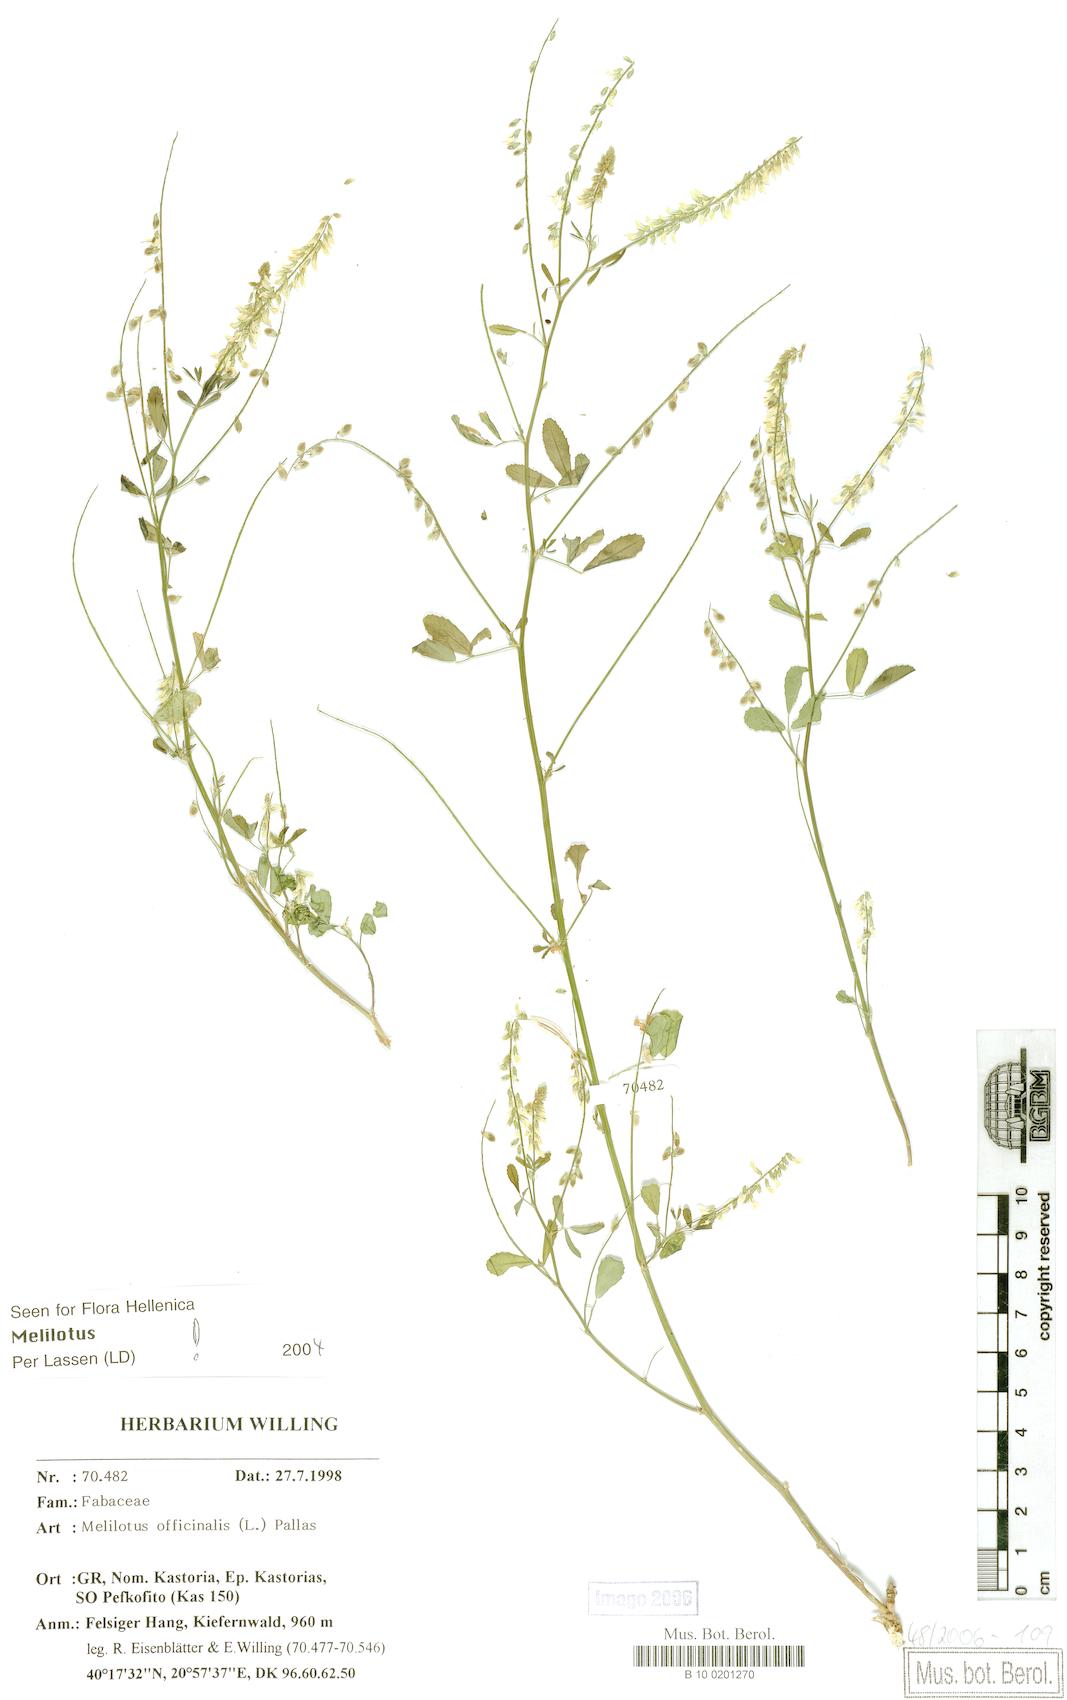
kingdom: Plantae
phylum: Tracheophyta
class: Magnoliopsida
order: Fabales
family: Fabaceae
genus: Melilotus
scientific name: Melilotus officinalis
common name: Sweetclover
